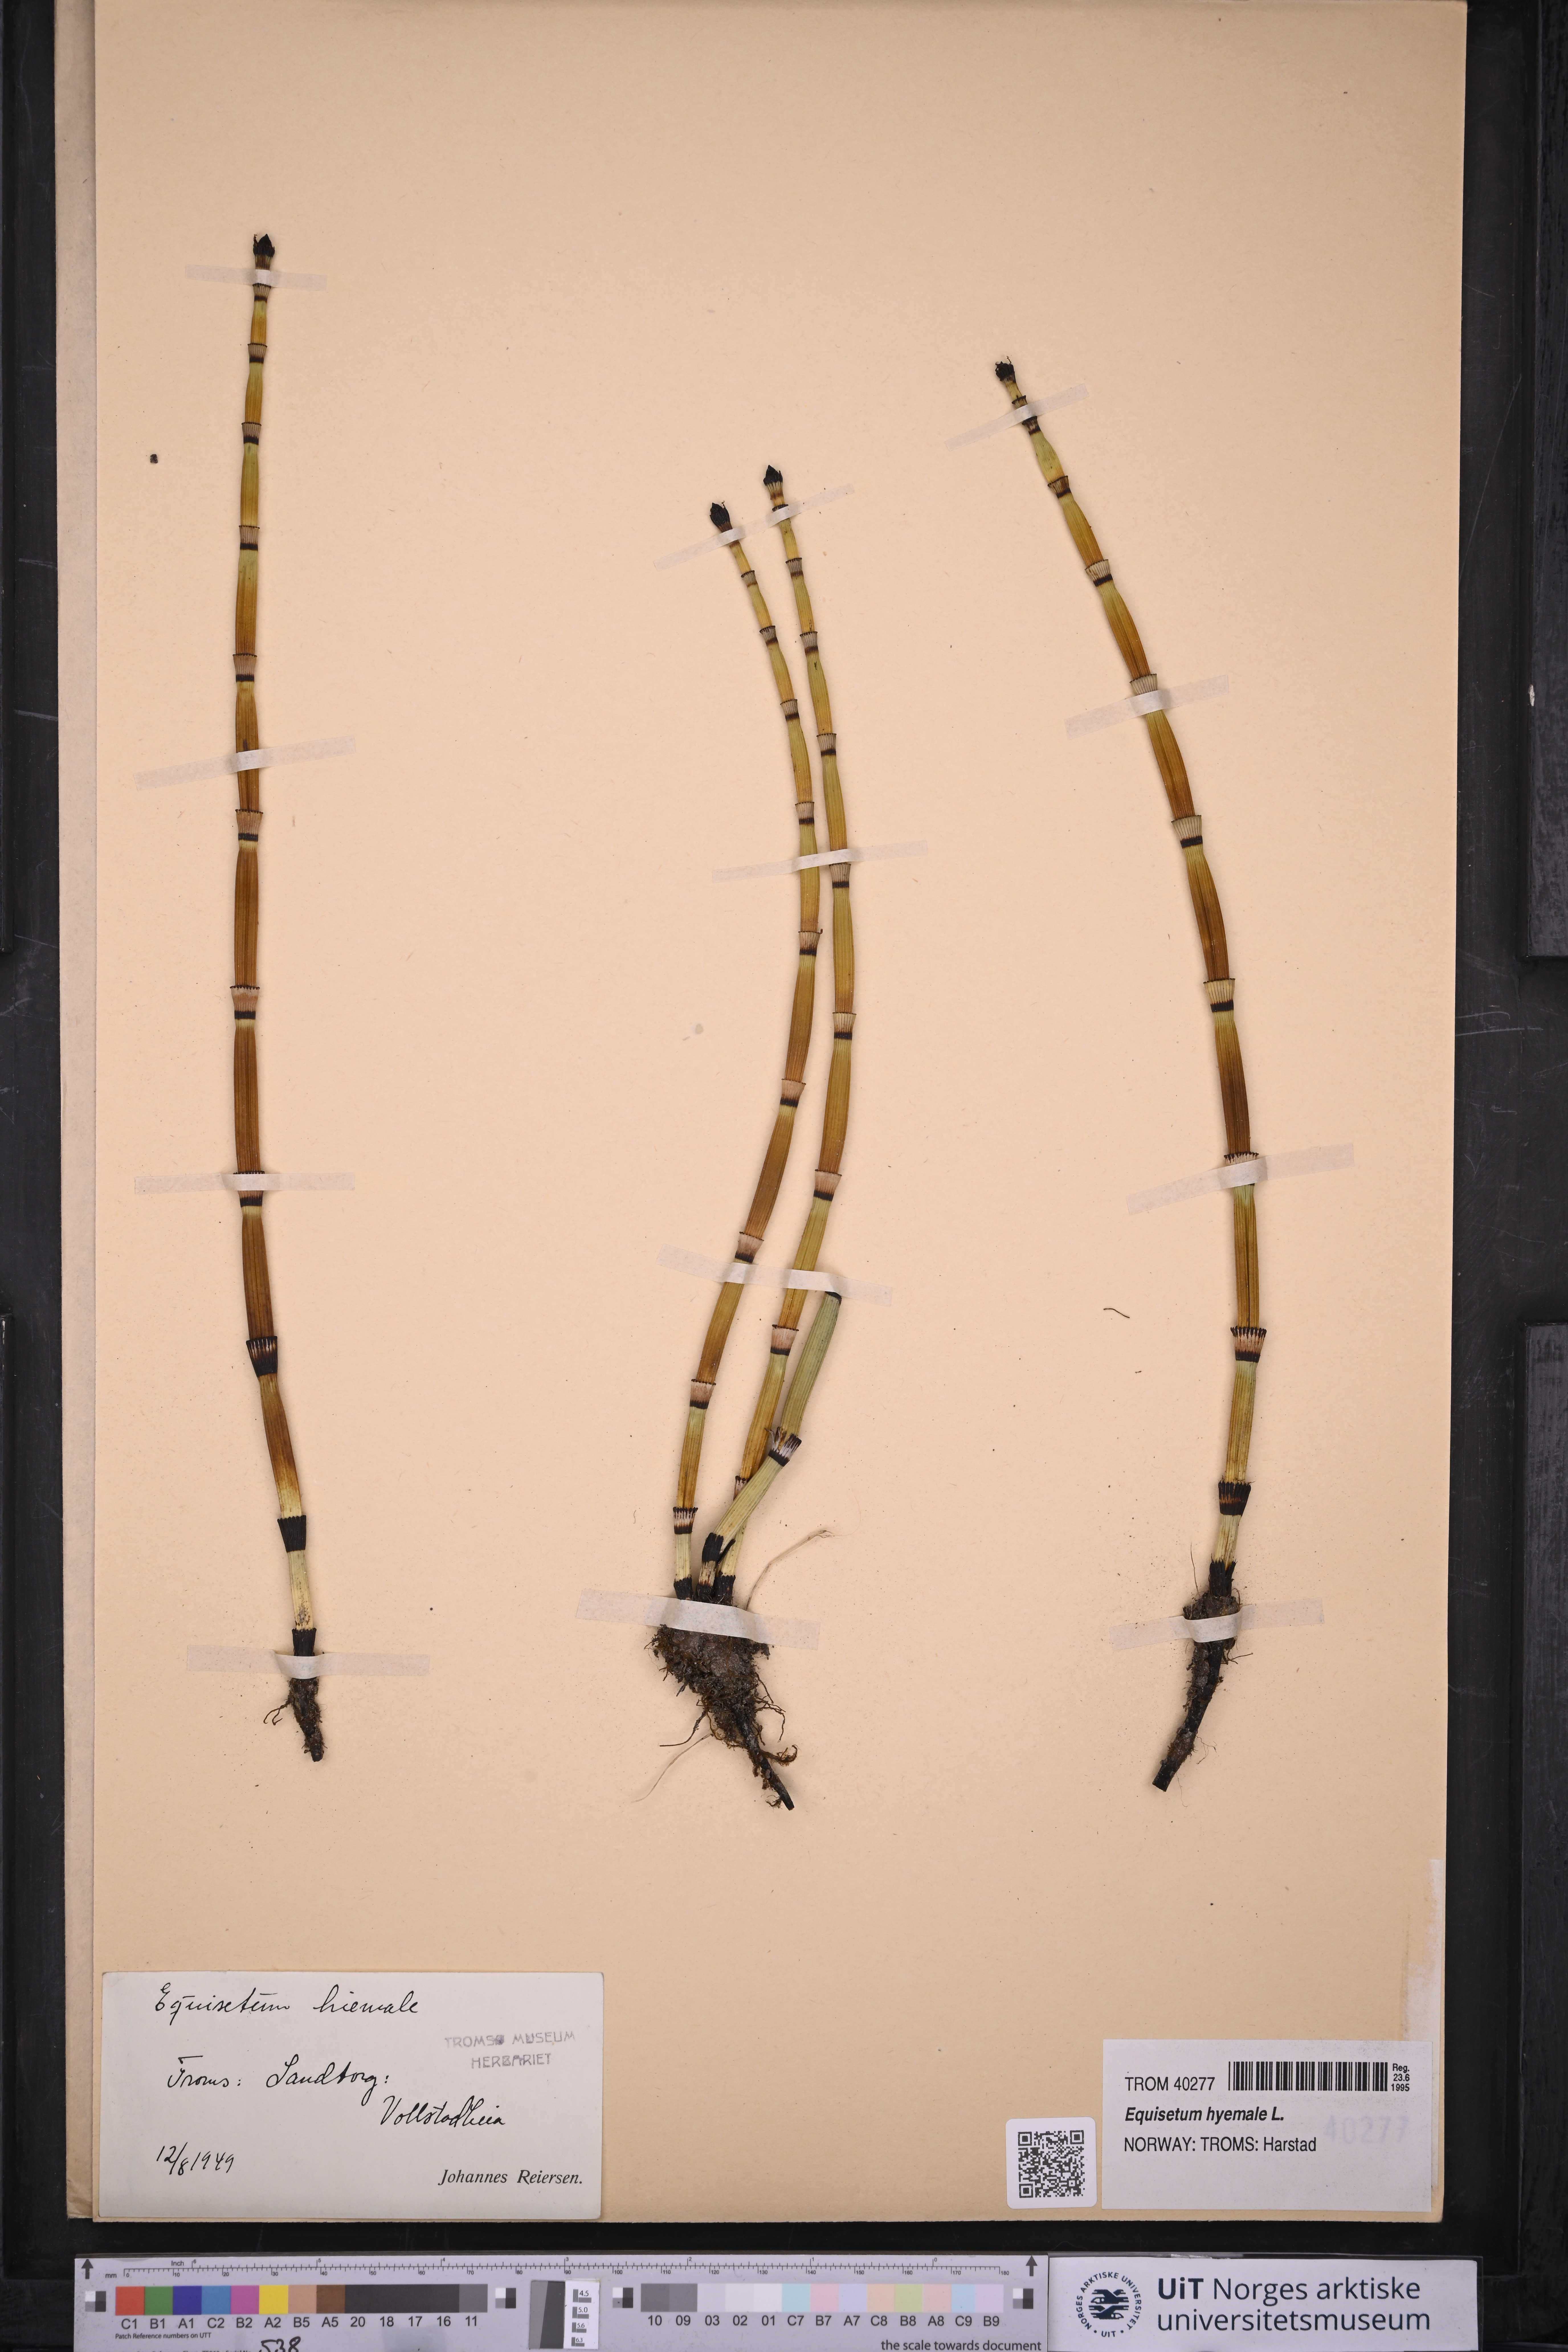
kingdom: Plantae
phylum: Tracheophyta
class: Polypodiopsida
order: Equisetales
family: Equisetaceae
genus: Equisetum
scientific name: Equisetum hyemale
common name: Rough horsetail
